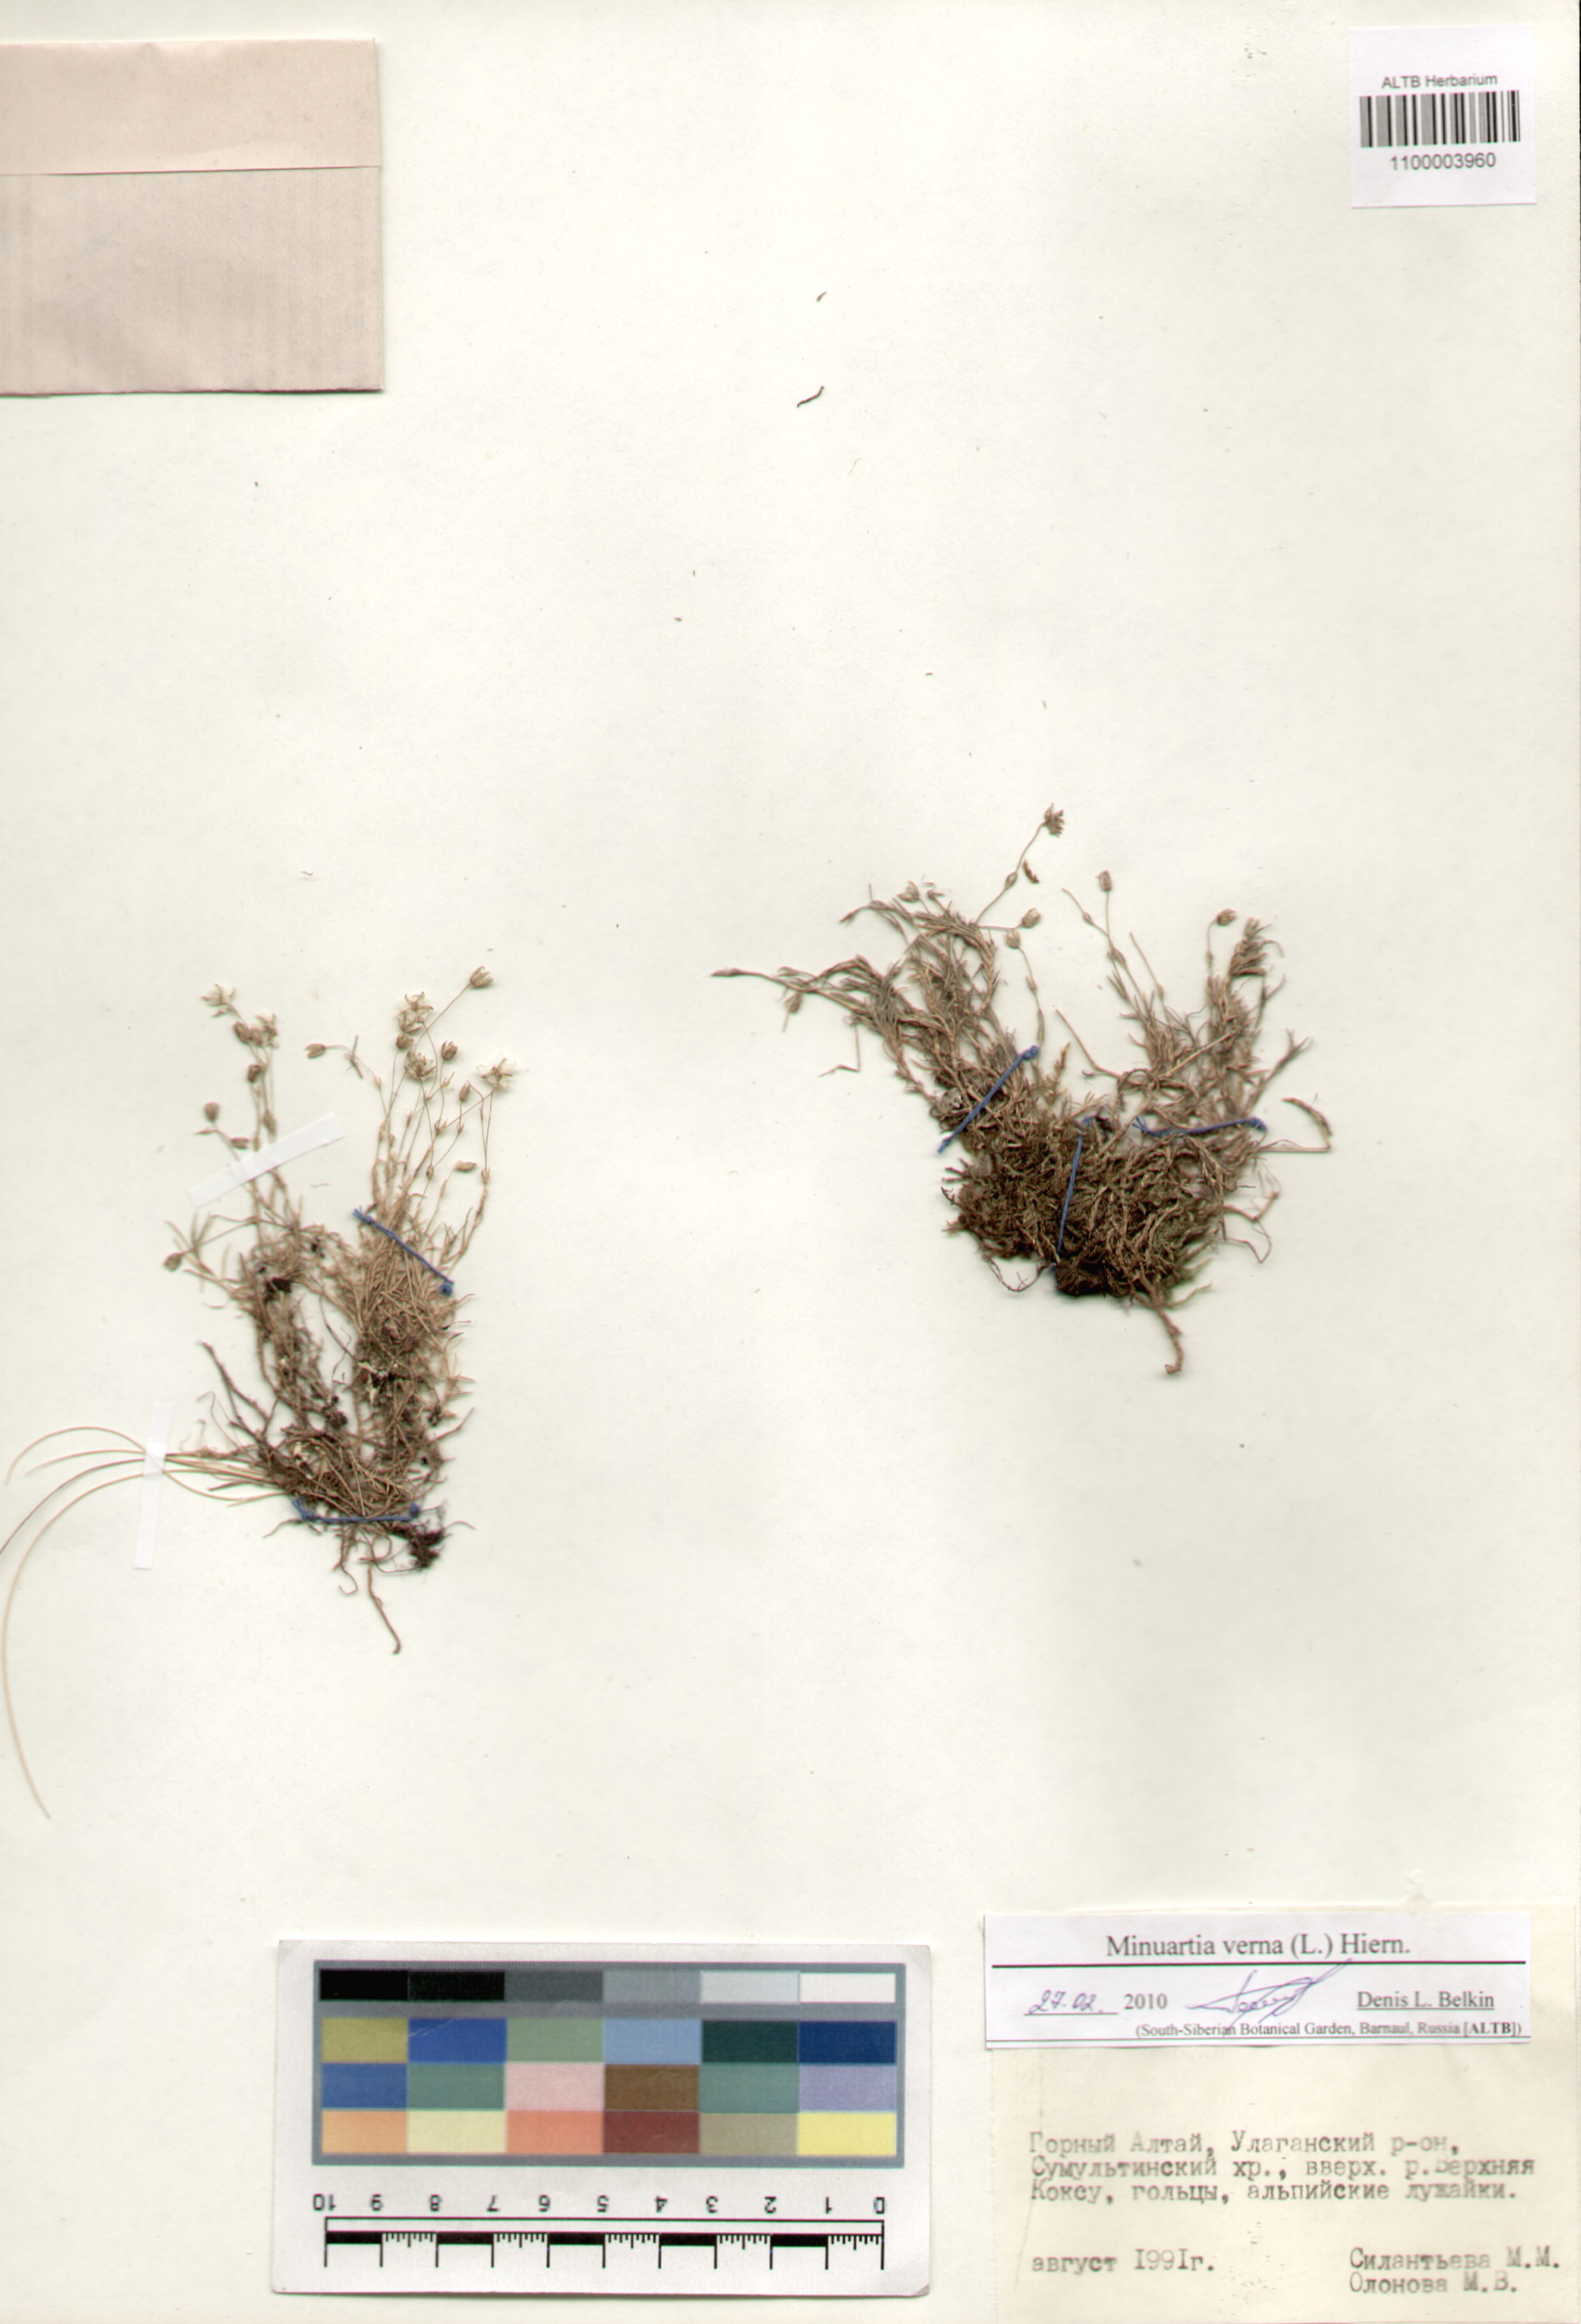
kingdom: Plantae
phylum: Tracheophyta
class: Magnoliopsida
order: Caryophyllales
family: Caryophyllaceae
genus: Sabulina
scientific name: Sabulina verna
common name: Spring sandwort
